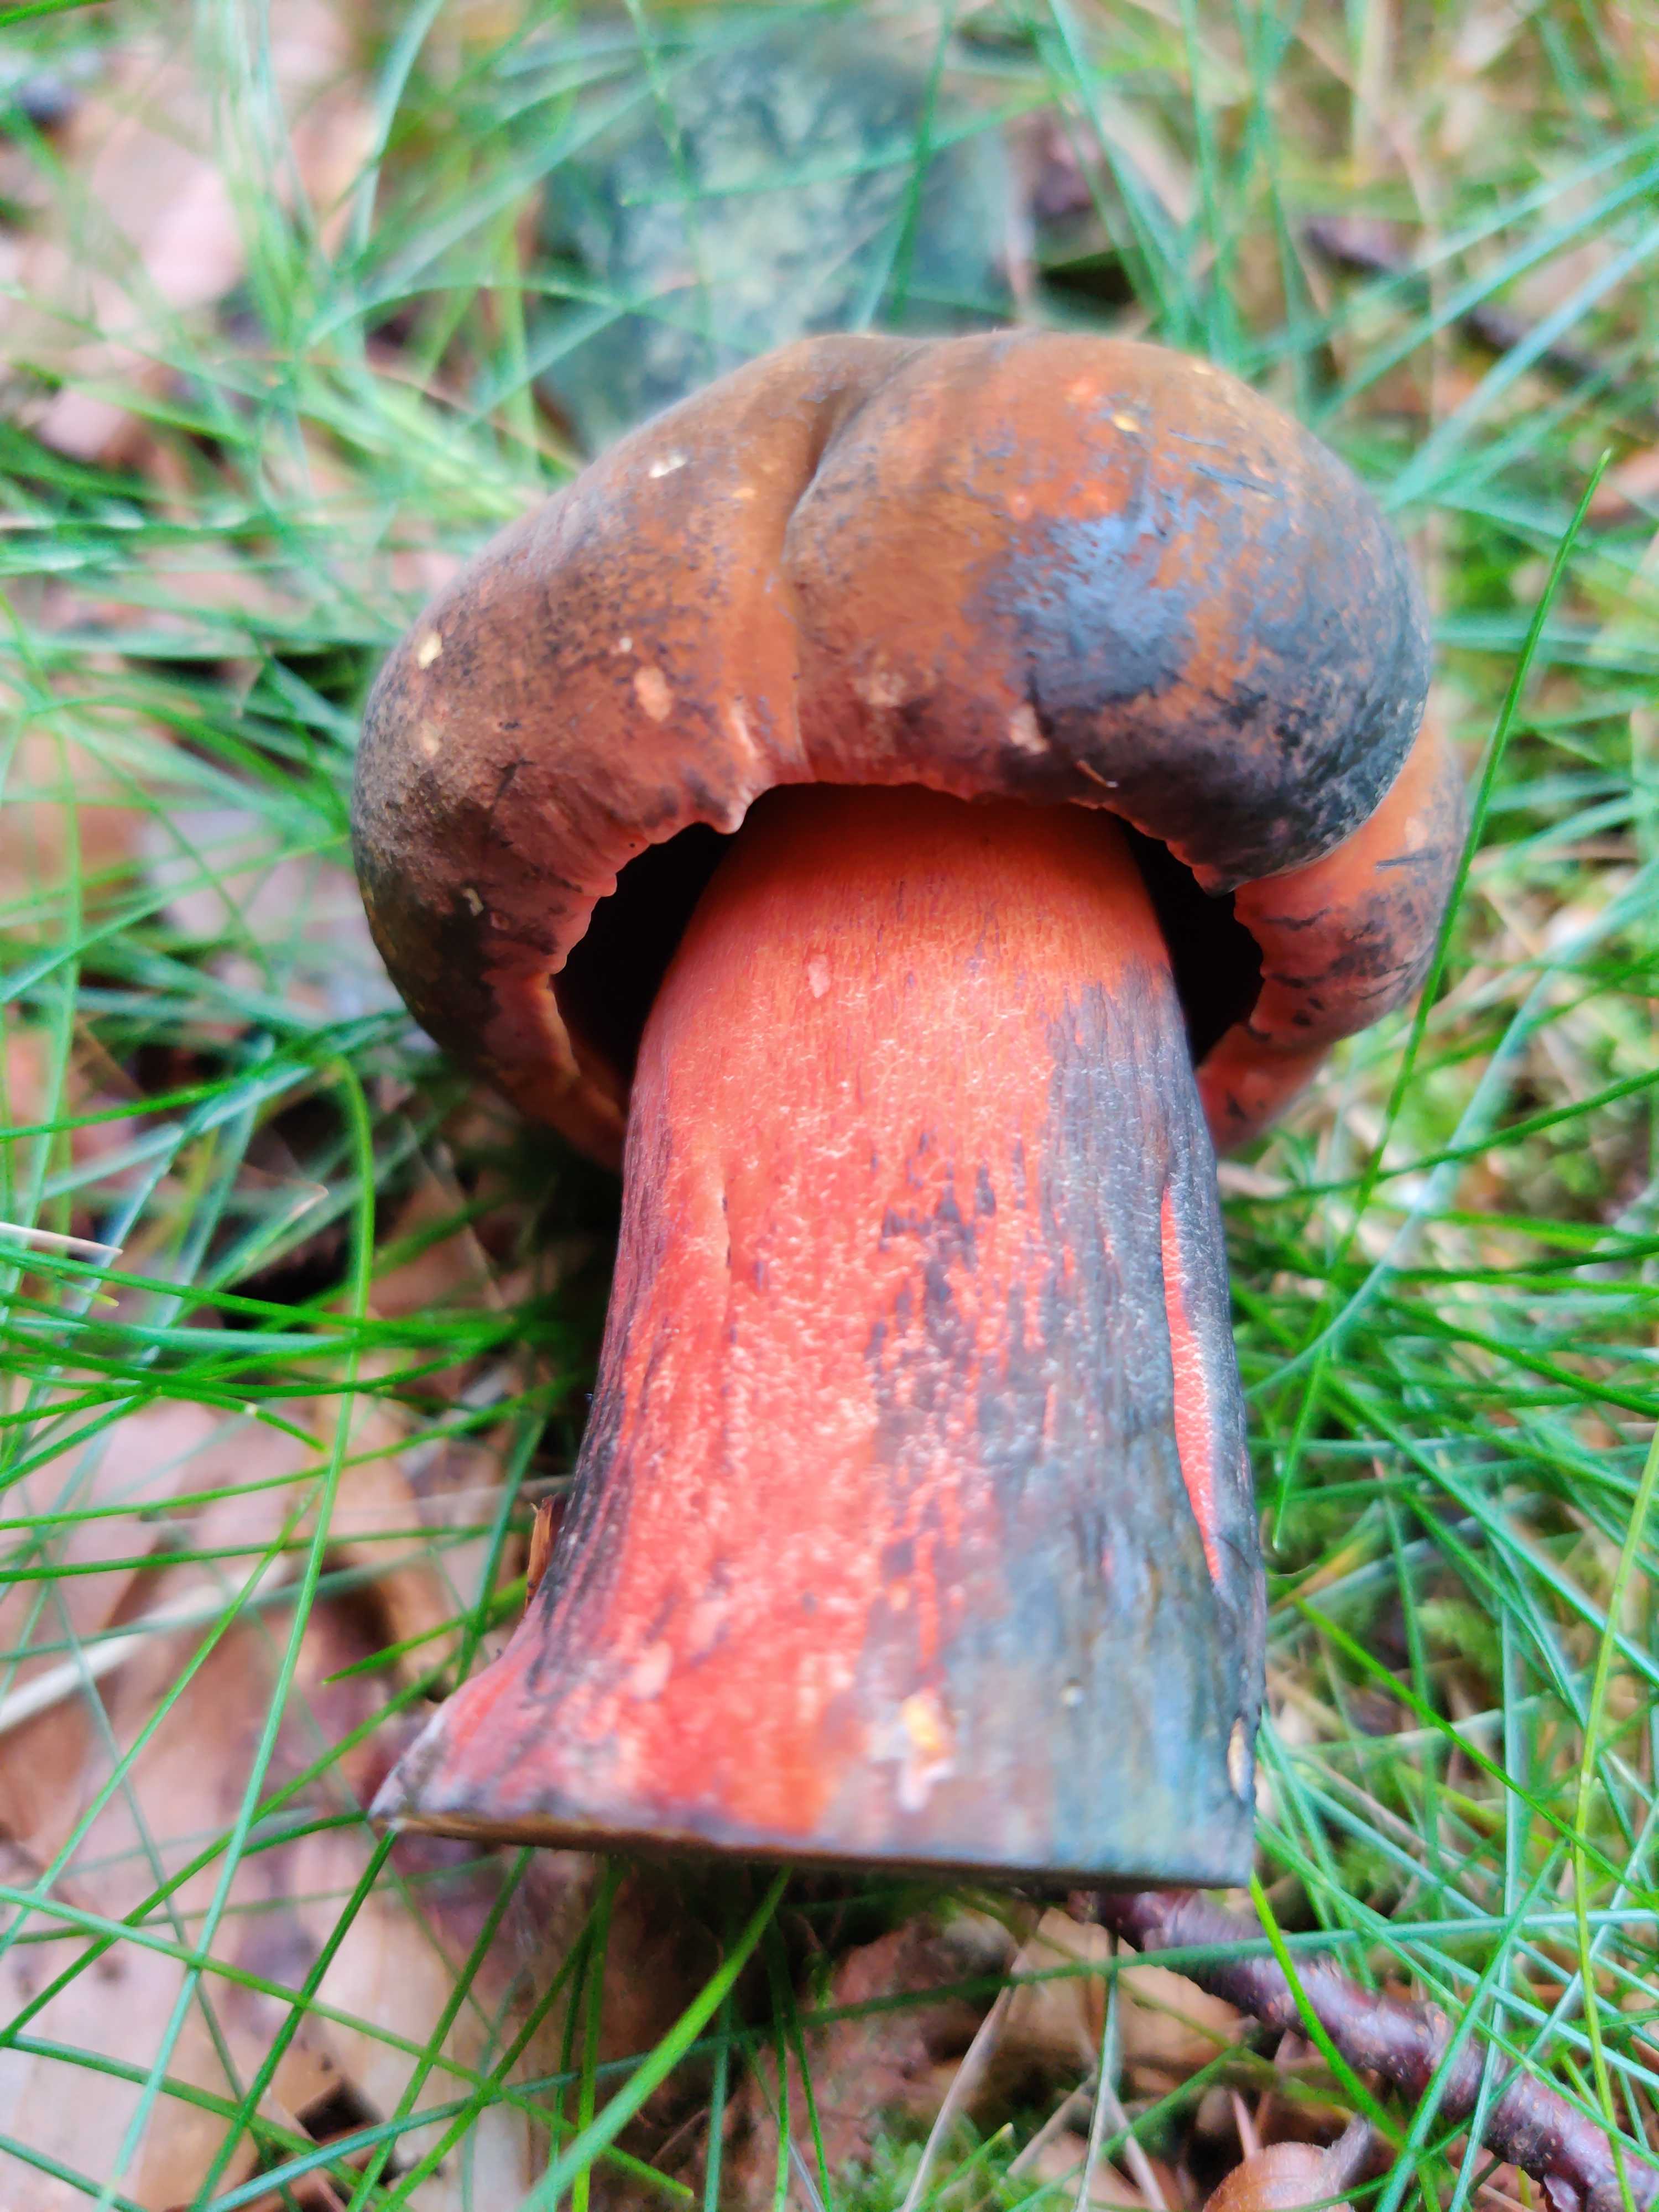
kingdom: Fungi
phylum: Basidiomycota
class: Agaricomycetes
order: Boletales
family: Boletaceae
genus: Neoboletus
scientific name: Neoboletus erythropus
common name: punktstokket indigorørhat
